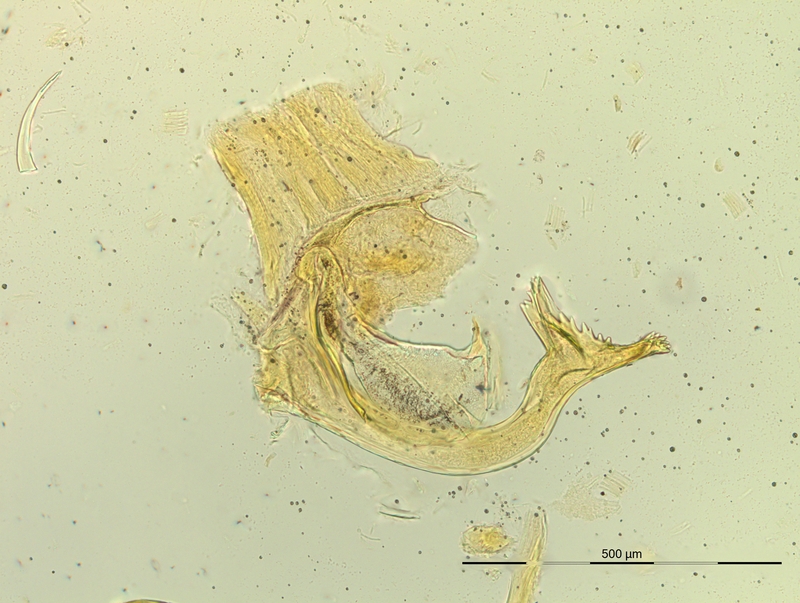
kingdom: Animalia
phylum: Arthropoda
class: Diplopoda
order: Chordeumatida
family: Craspedosomatidae
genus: Pyrgocyphosoma
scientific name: Pyrgocyphosoma titianum
